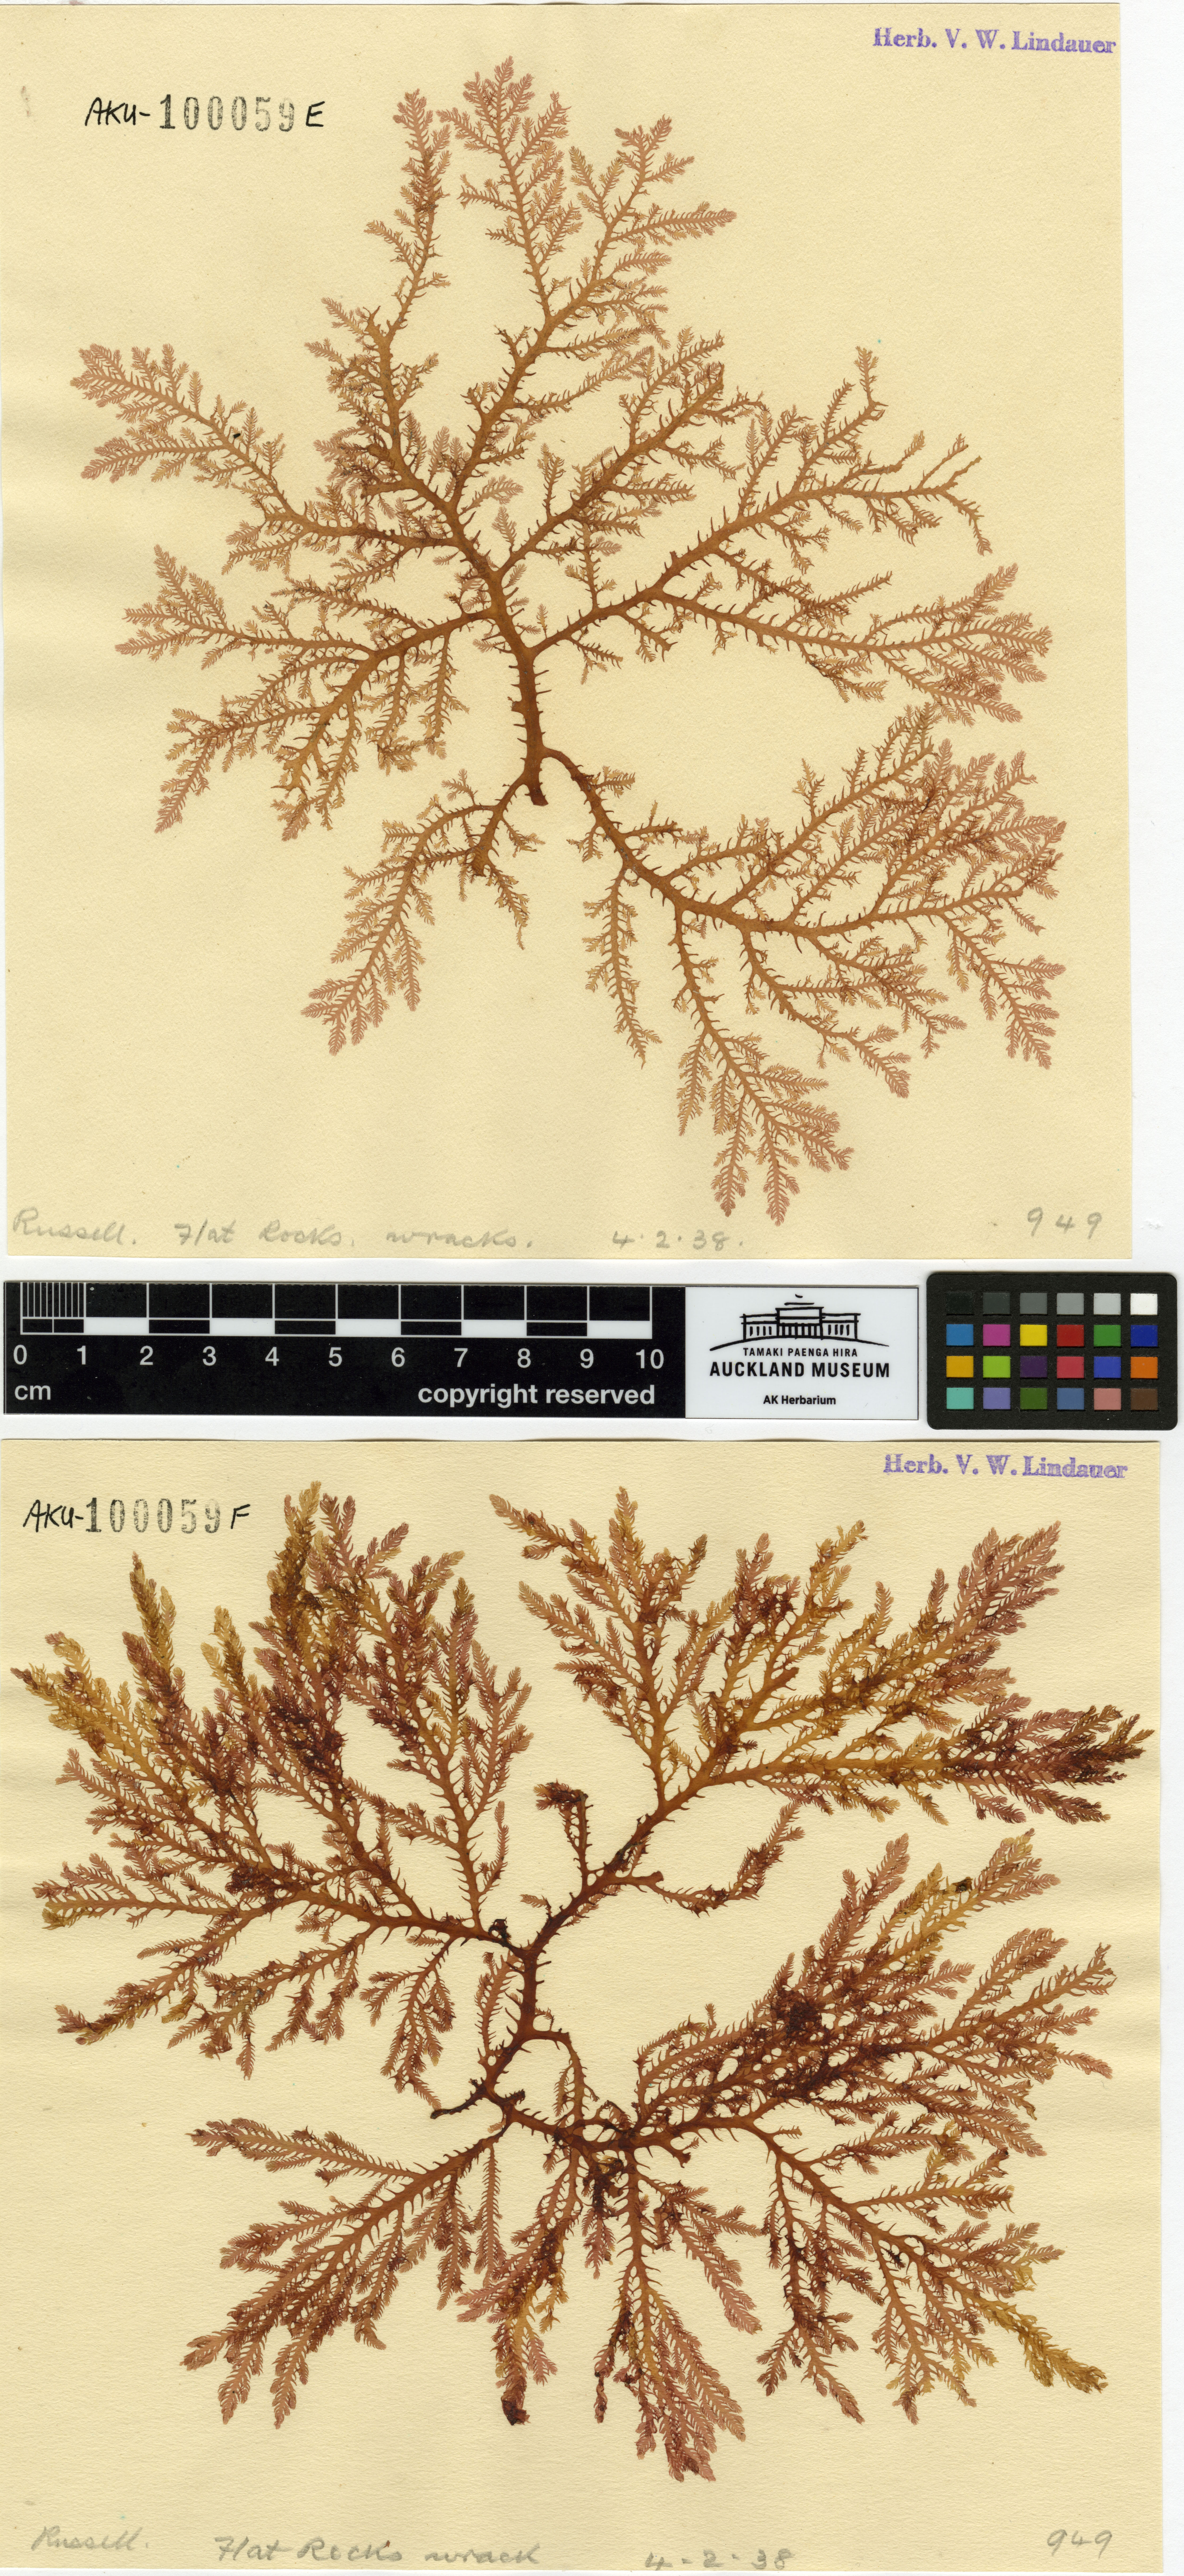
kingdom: Plantae
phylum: Rhodophyta
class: Florideophyceae
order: Gigartinales
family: Phacelocarpaceae
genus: Phacelocarpus
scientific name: Phacelocarpus
